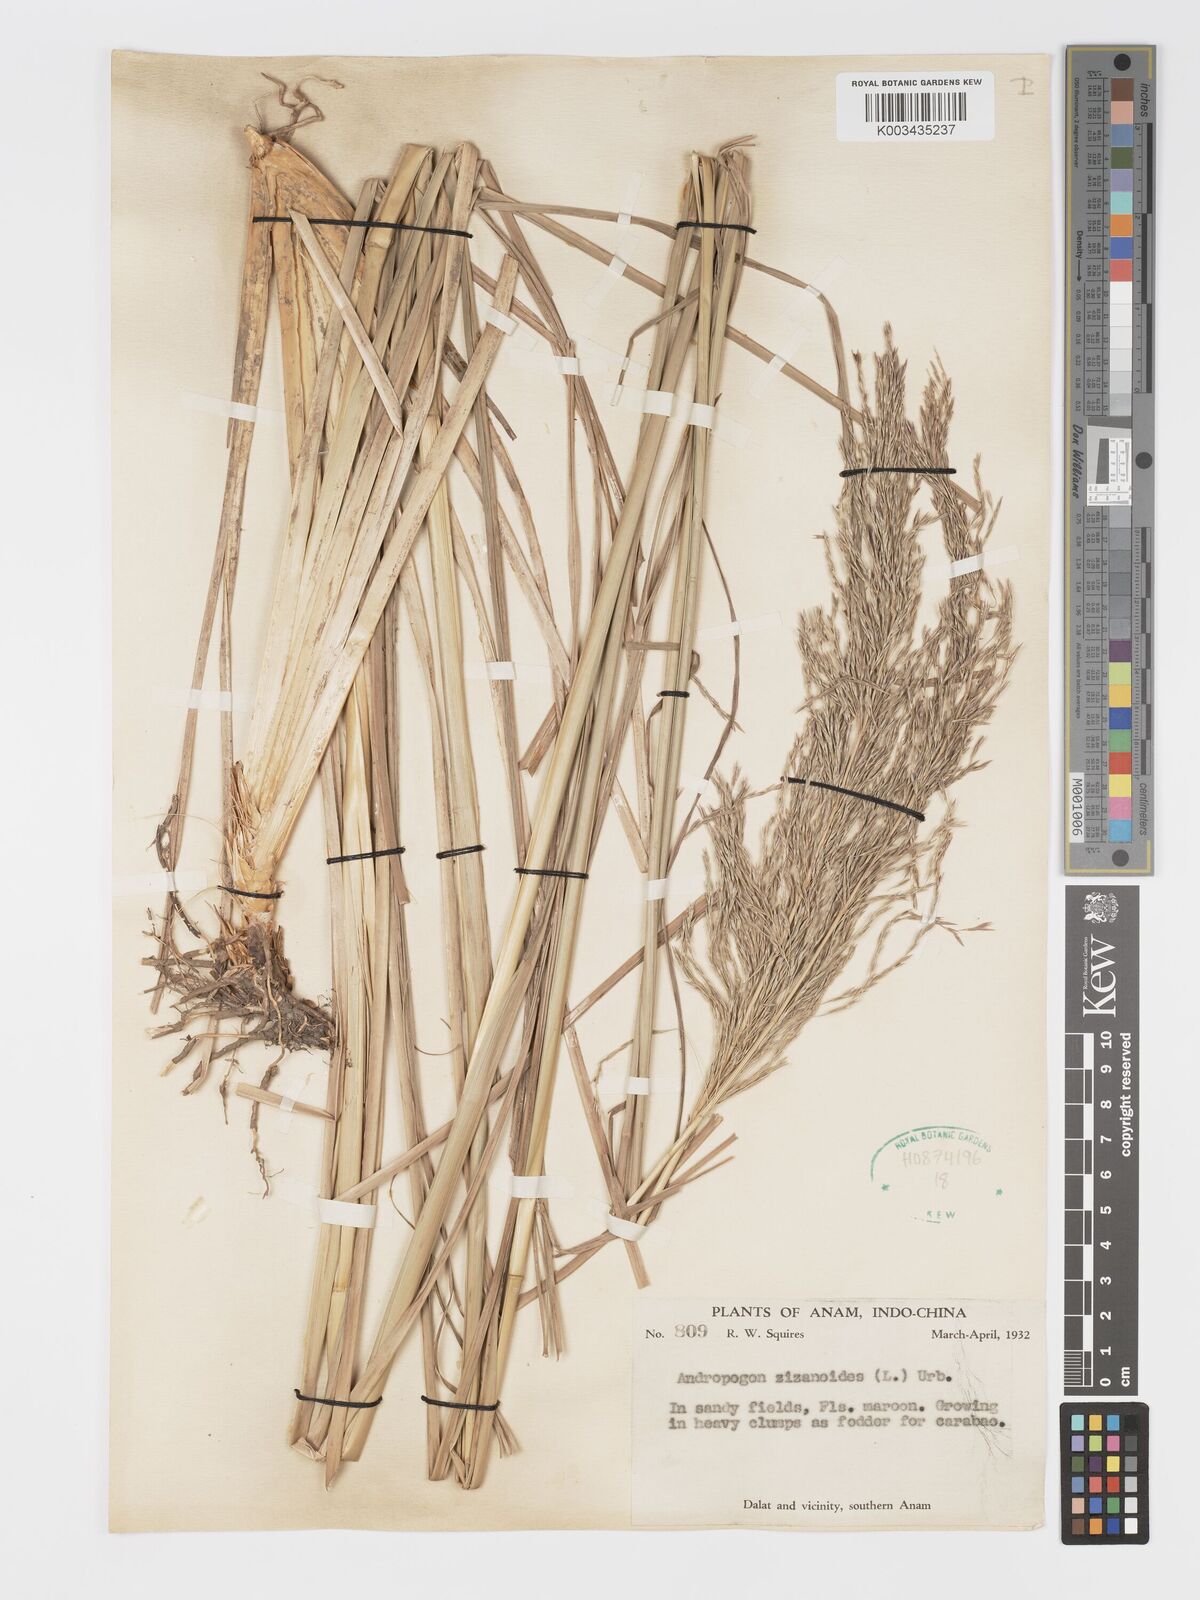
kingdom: Plantae
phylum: Tracheophyta
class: Liliopsida
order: Poales
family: Poaceae
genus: Chrysopogon
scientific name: Chrysopogon zizanioides
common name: False beardgrass
